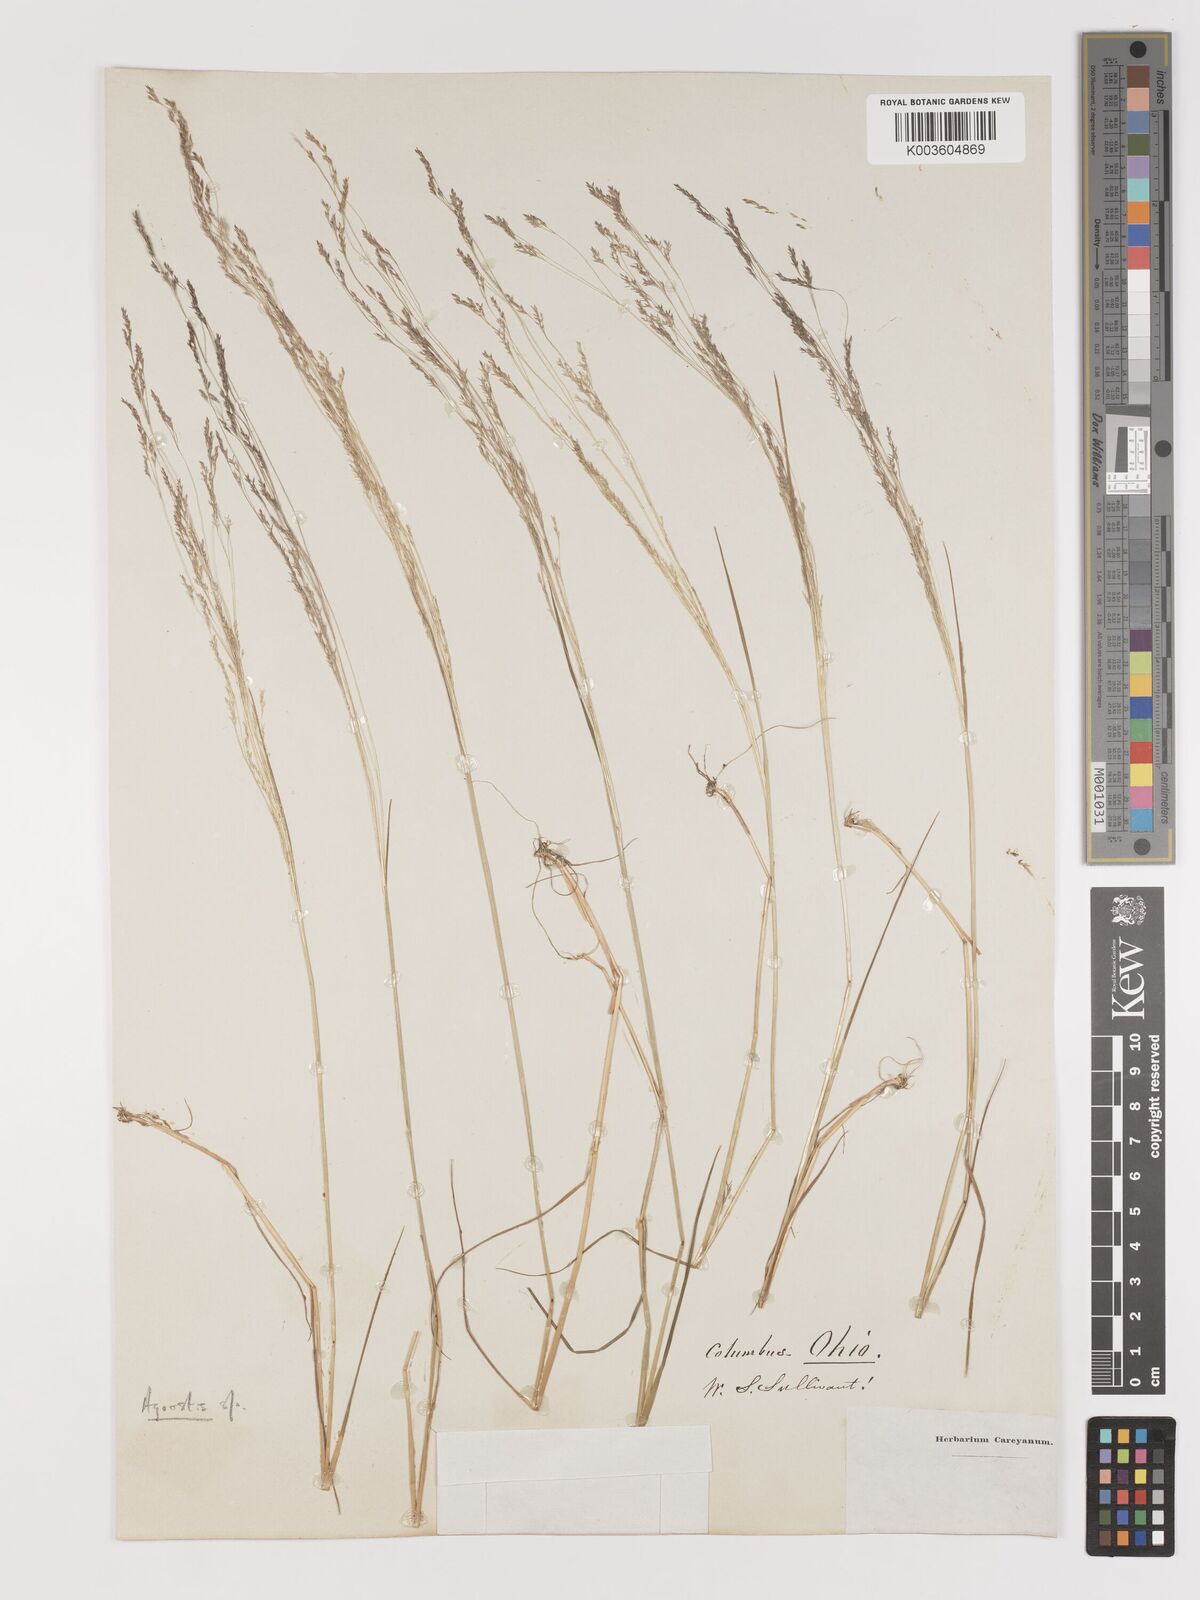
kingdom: Plantae
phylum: Tracheophyta
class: Liliopsida
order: Poales
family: Poaceae
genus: Agrostis
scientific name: Agrostis
